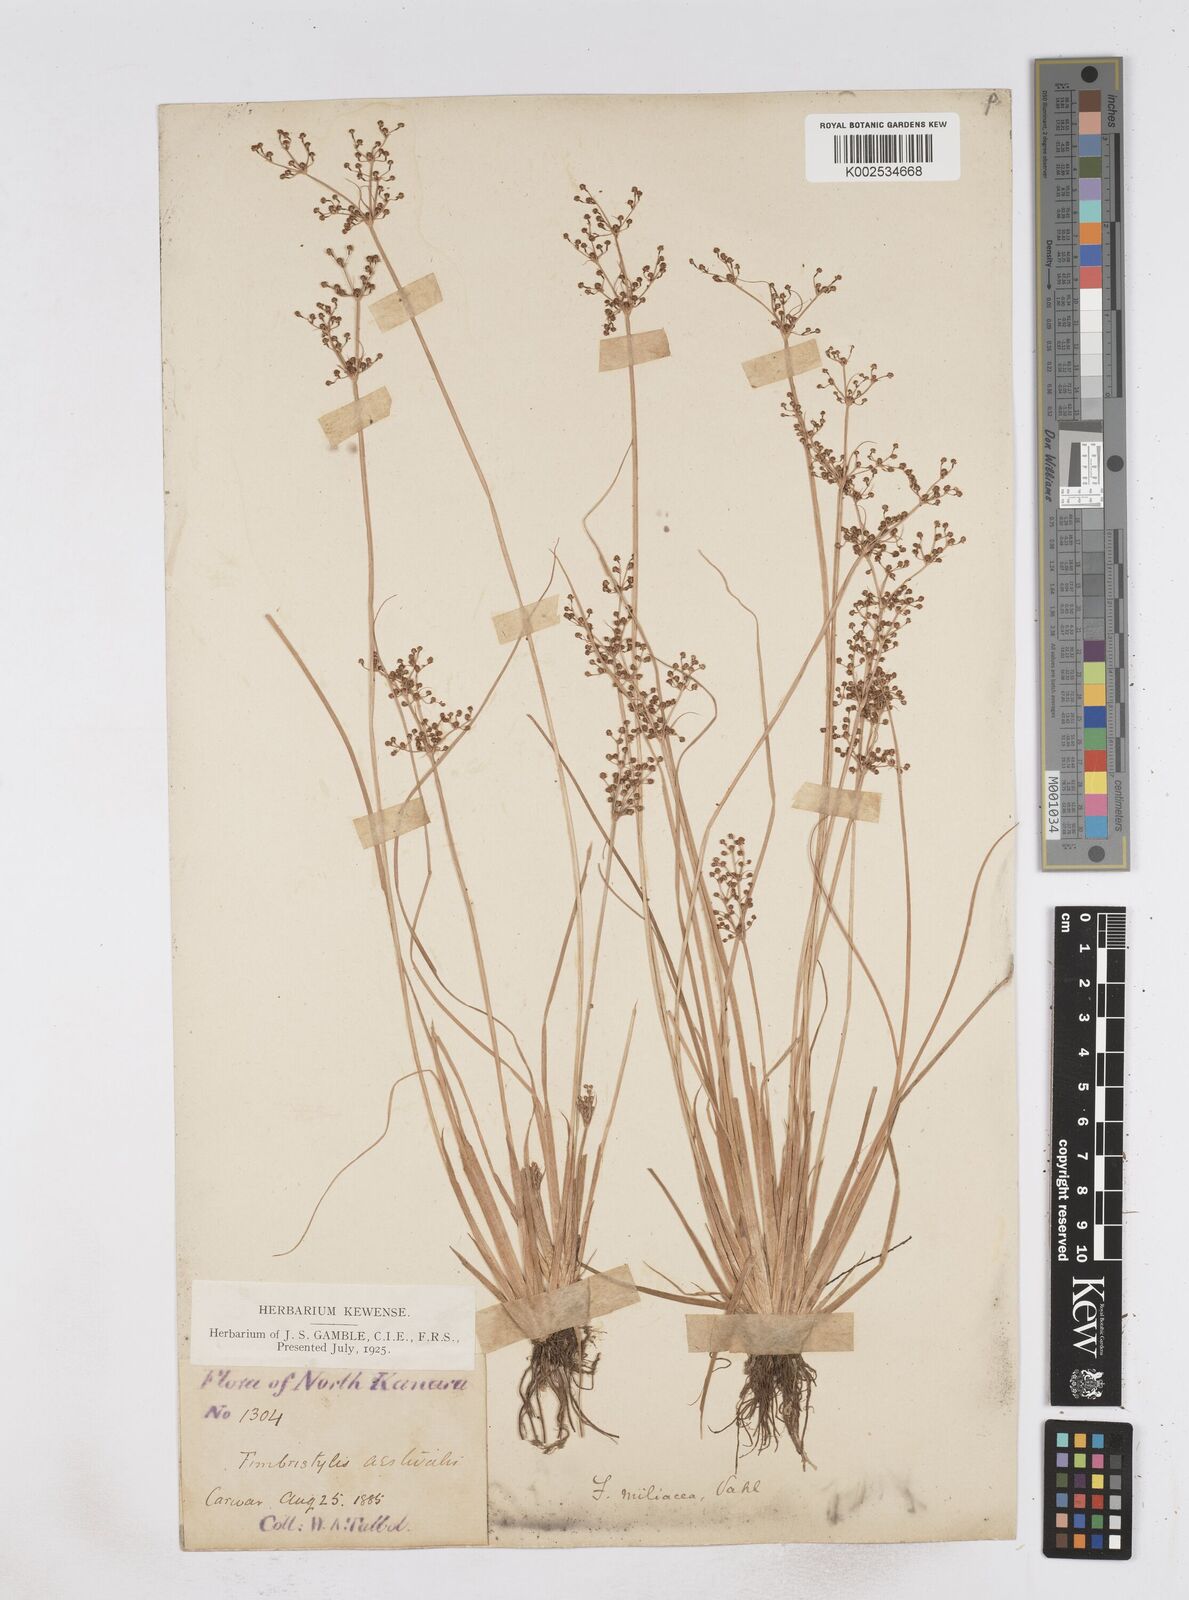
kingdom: Plantae
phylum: Tracheophyta
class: Liliopsida
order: Poales
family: Cyperaceae
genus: Fimbristylis
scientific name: Fimbristylis littoralis
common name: Fimbry
